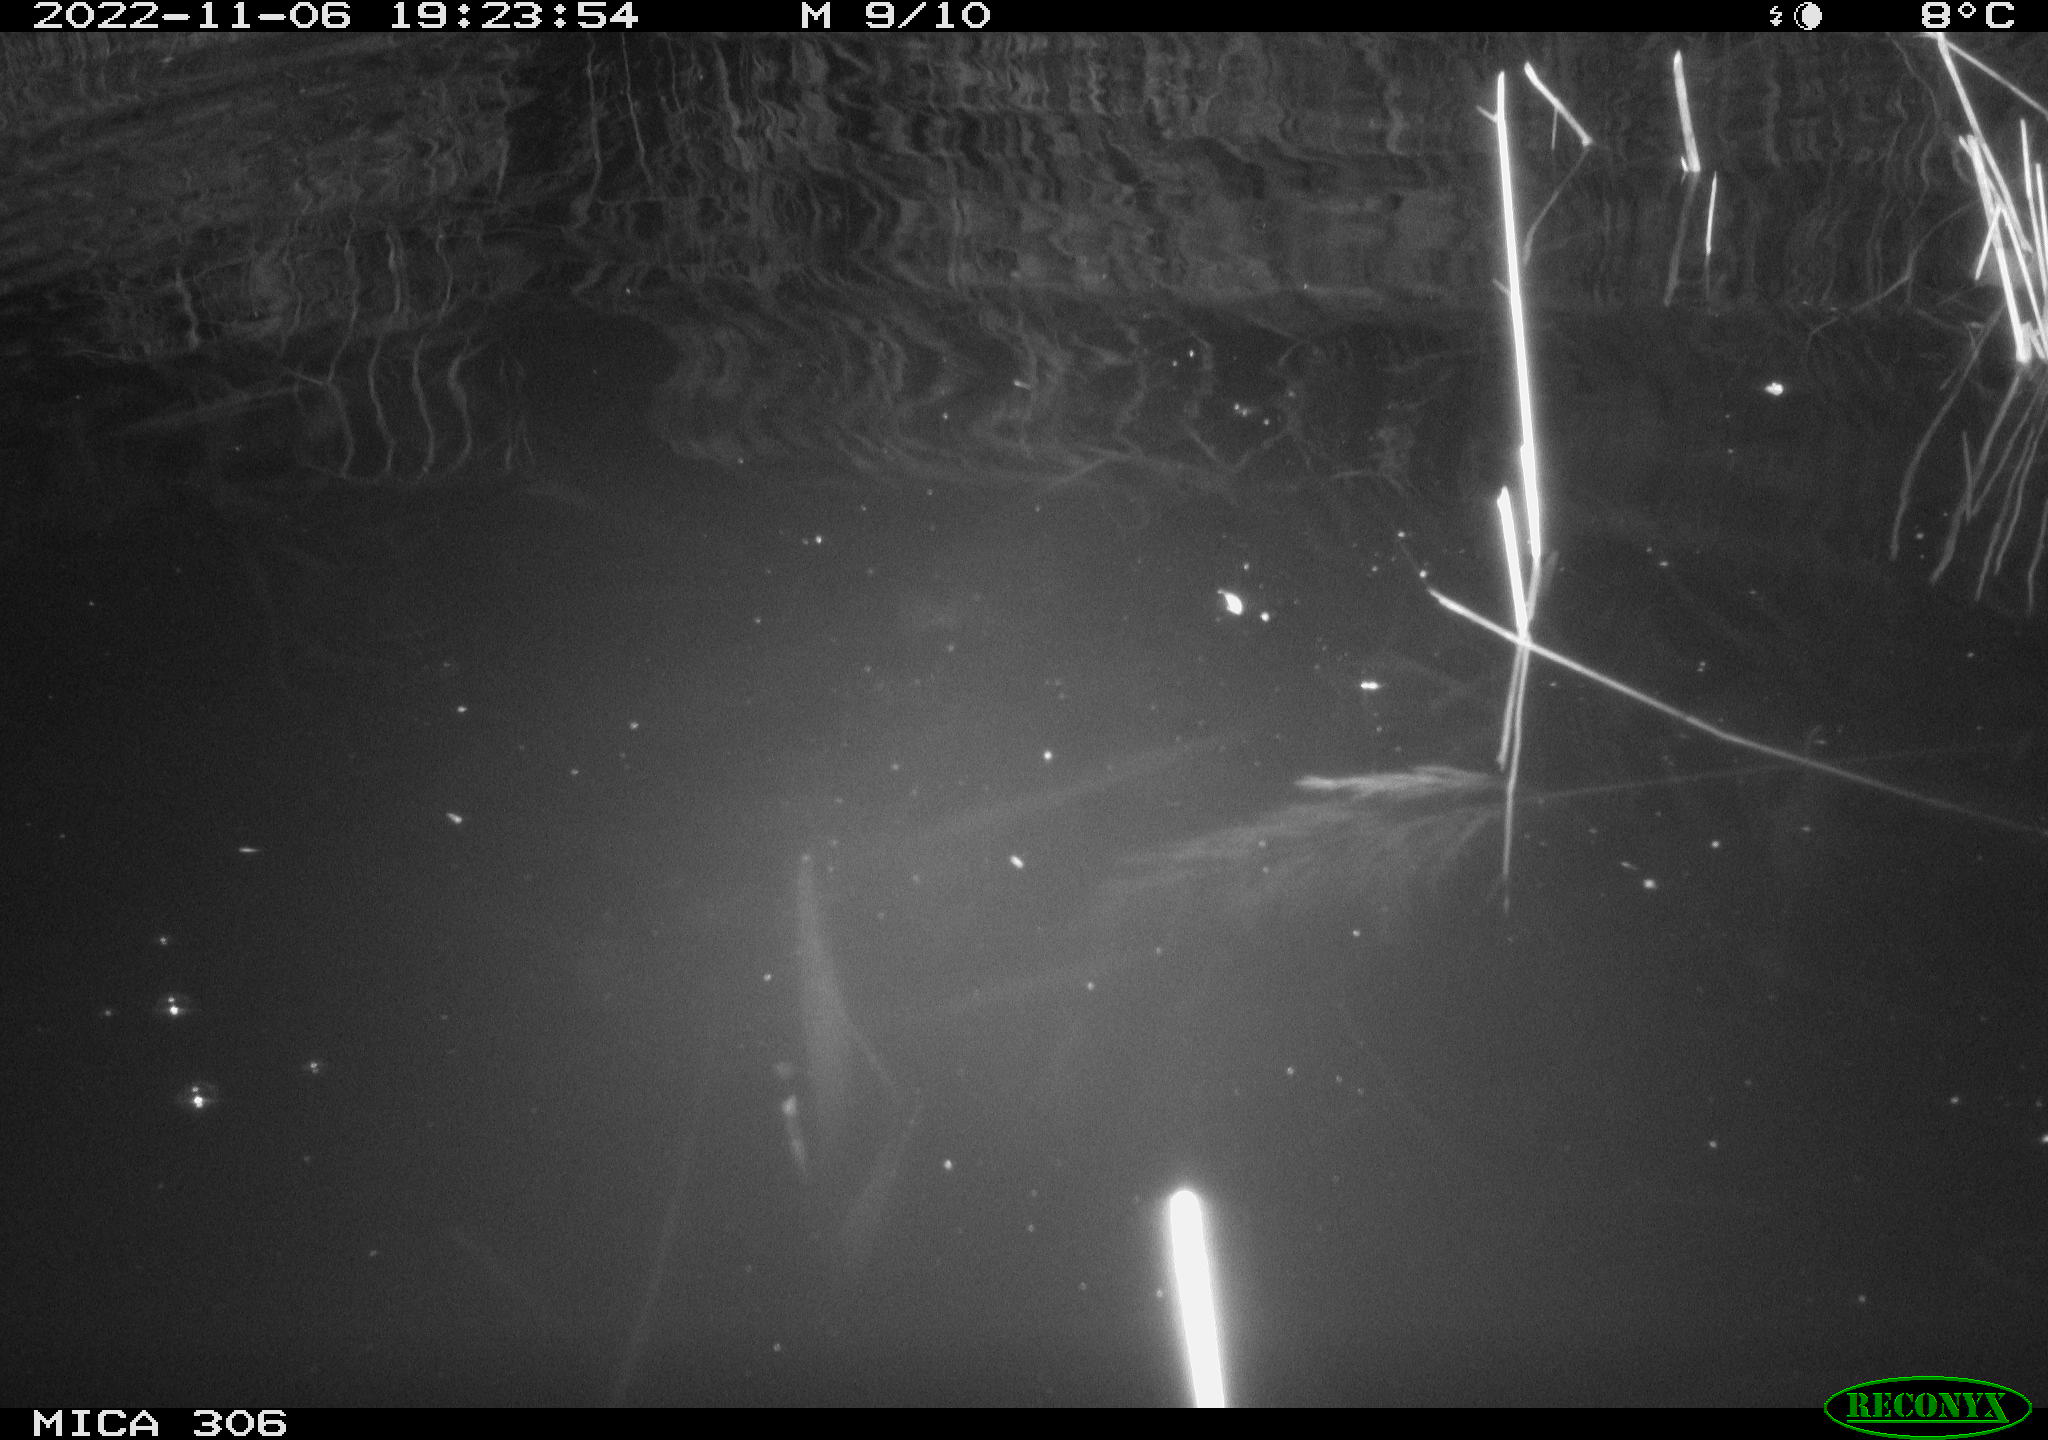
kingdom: Animalia
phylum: Chordata
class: Mammalia
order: Rodentia
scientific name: Rodentia
